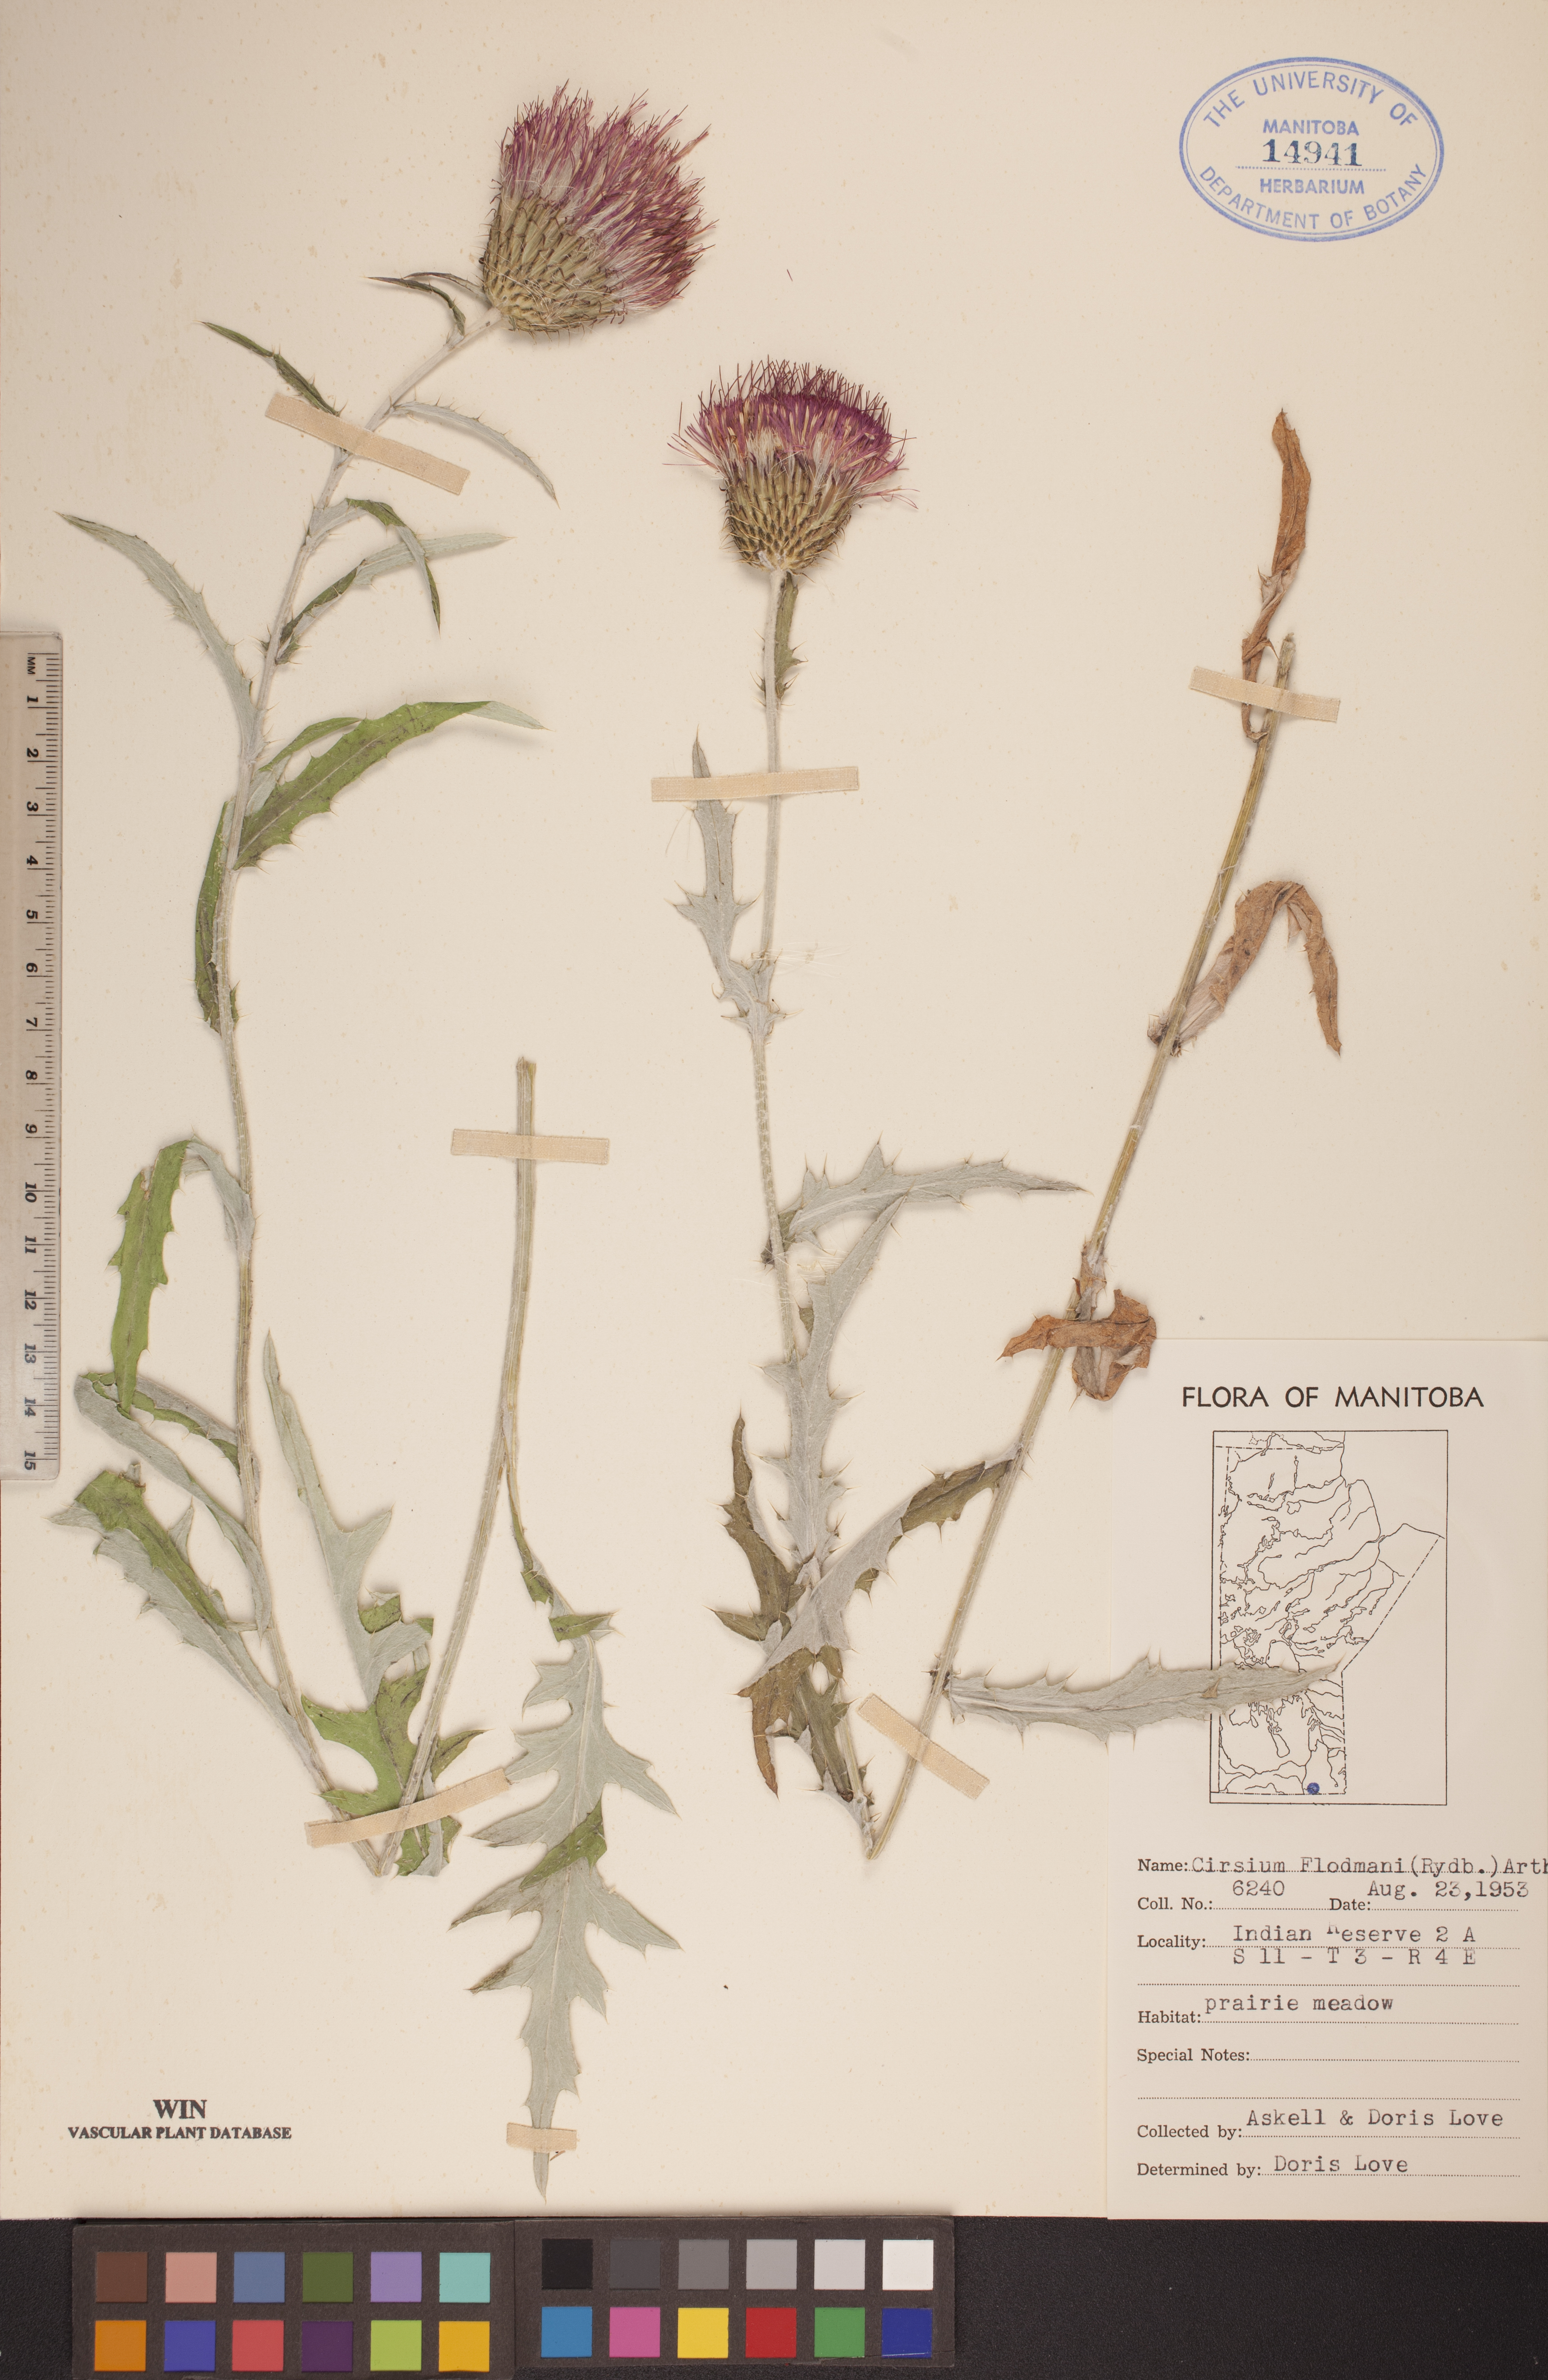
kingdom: Plantae
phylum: Tracheophyta
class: Magnoliopsida
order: Asterales
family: Asteraceae
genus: Cirsium
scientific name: Cirsium flodmanii
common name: Flodman's thistle
